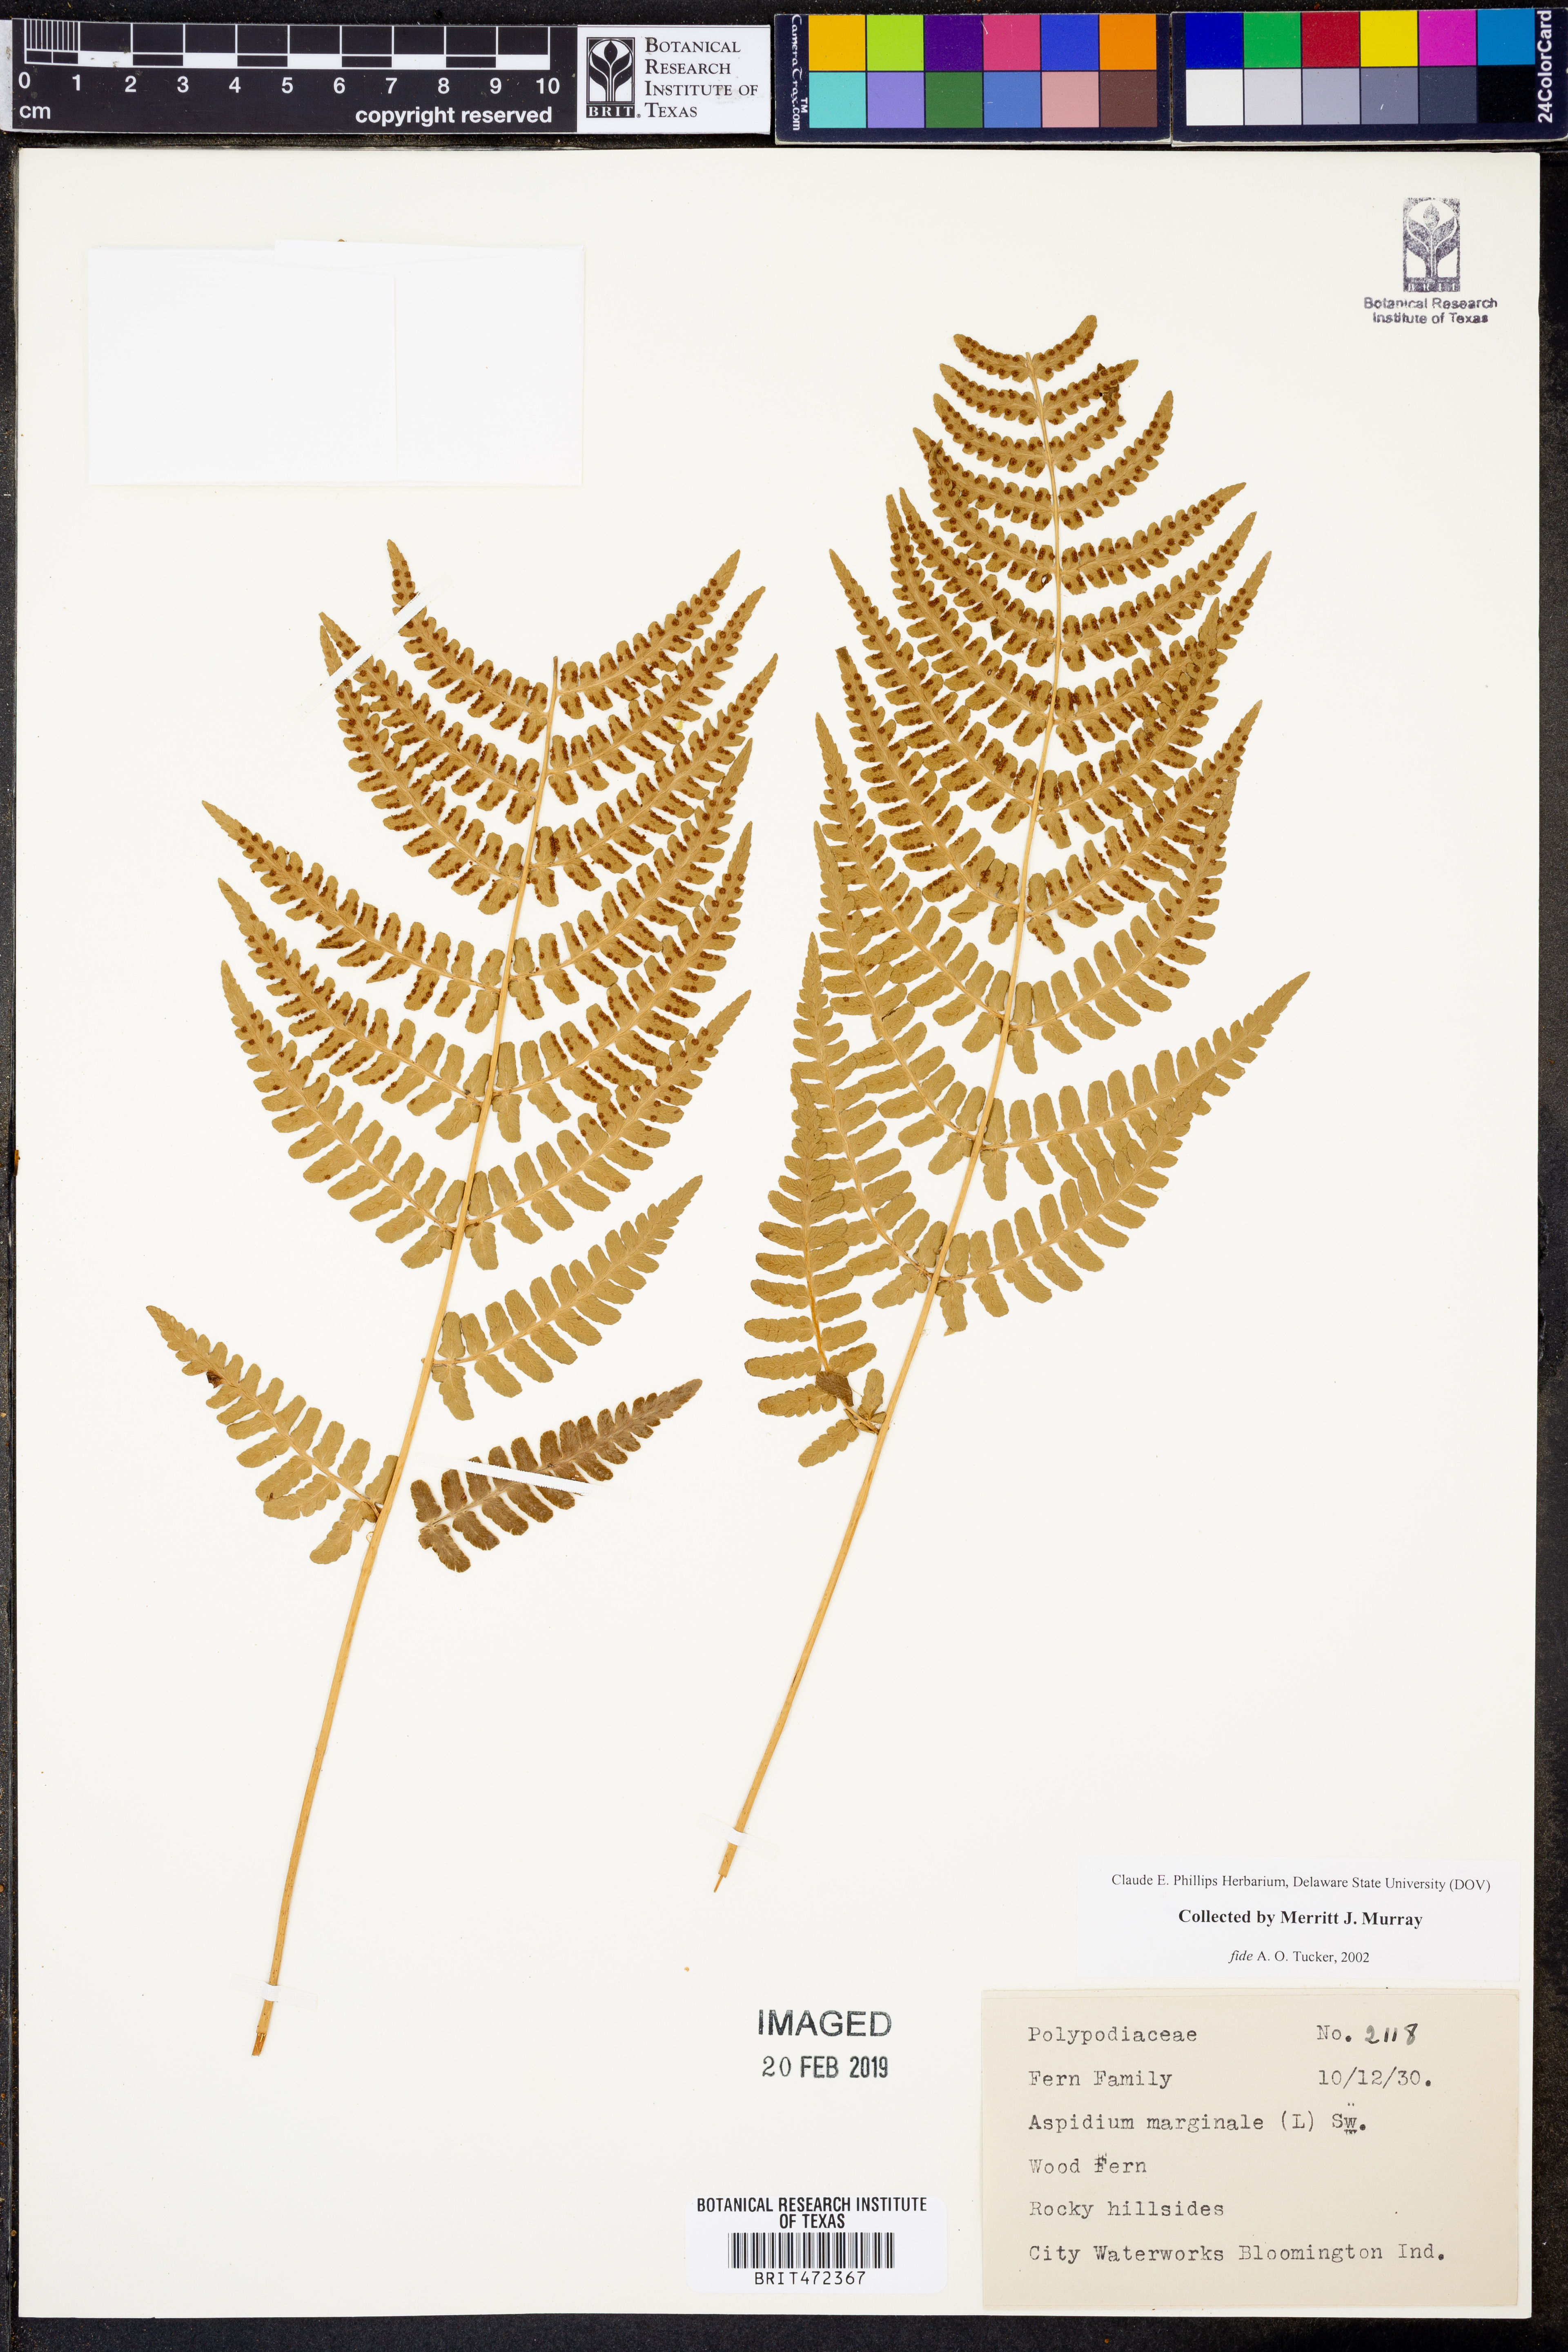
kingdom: Plantae
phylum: Tracheophyta
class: Polypodiopsida
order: Polypodiales
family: Dryopteridaceae
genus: Dryopteris
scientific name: Dryopteris marginalis
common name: Marginal wood fern
